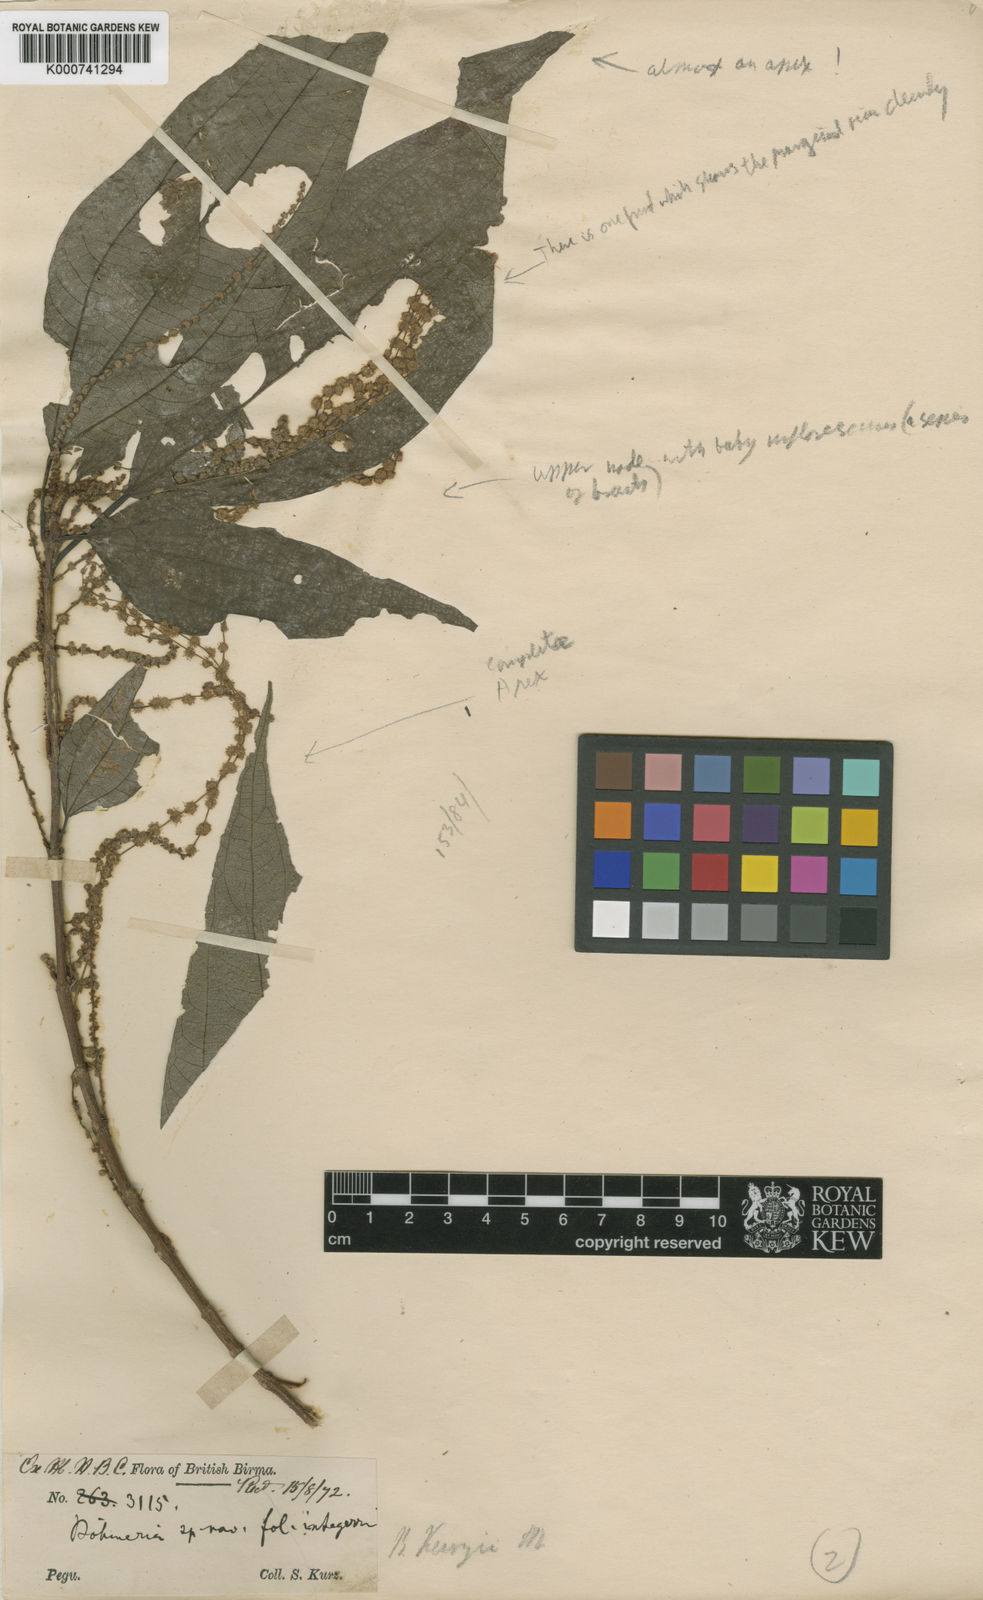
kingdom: Plantae
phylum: Tracheophyta
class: Magnoliopsida
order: Rosales
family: Urticaceae
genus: Boehmeria
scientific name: Boehmeria kurzii
